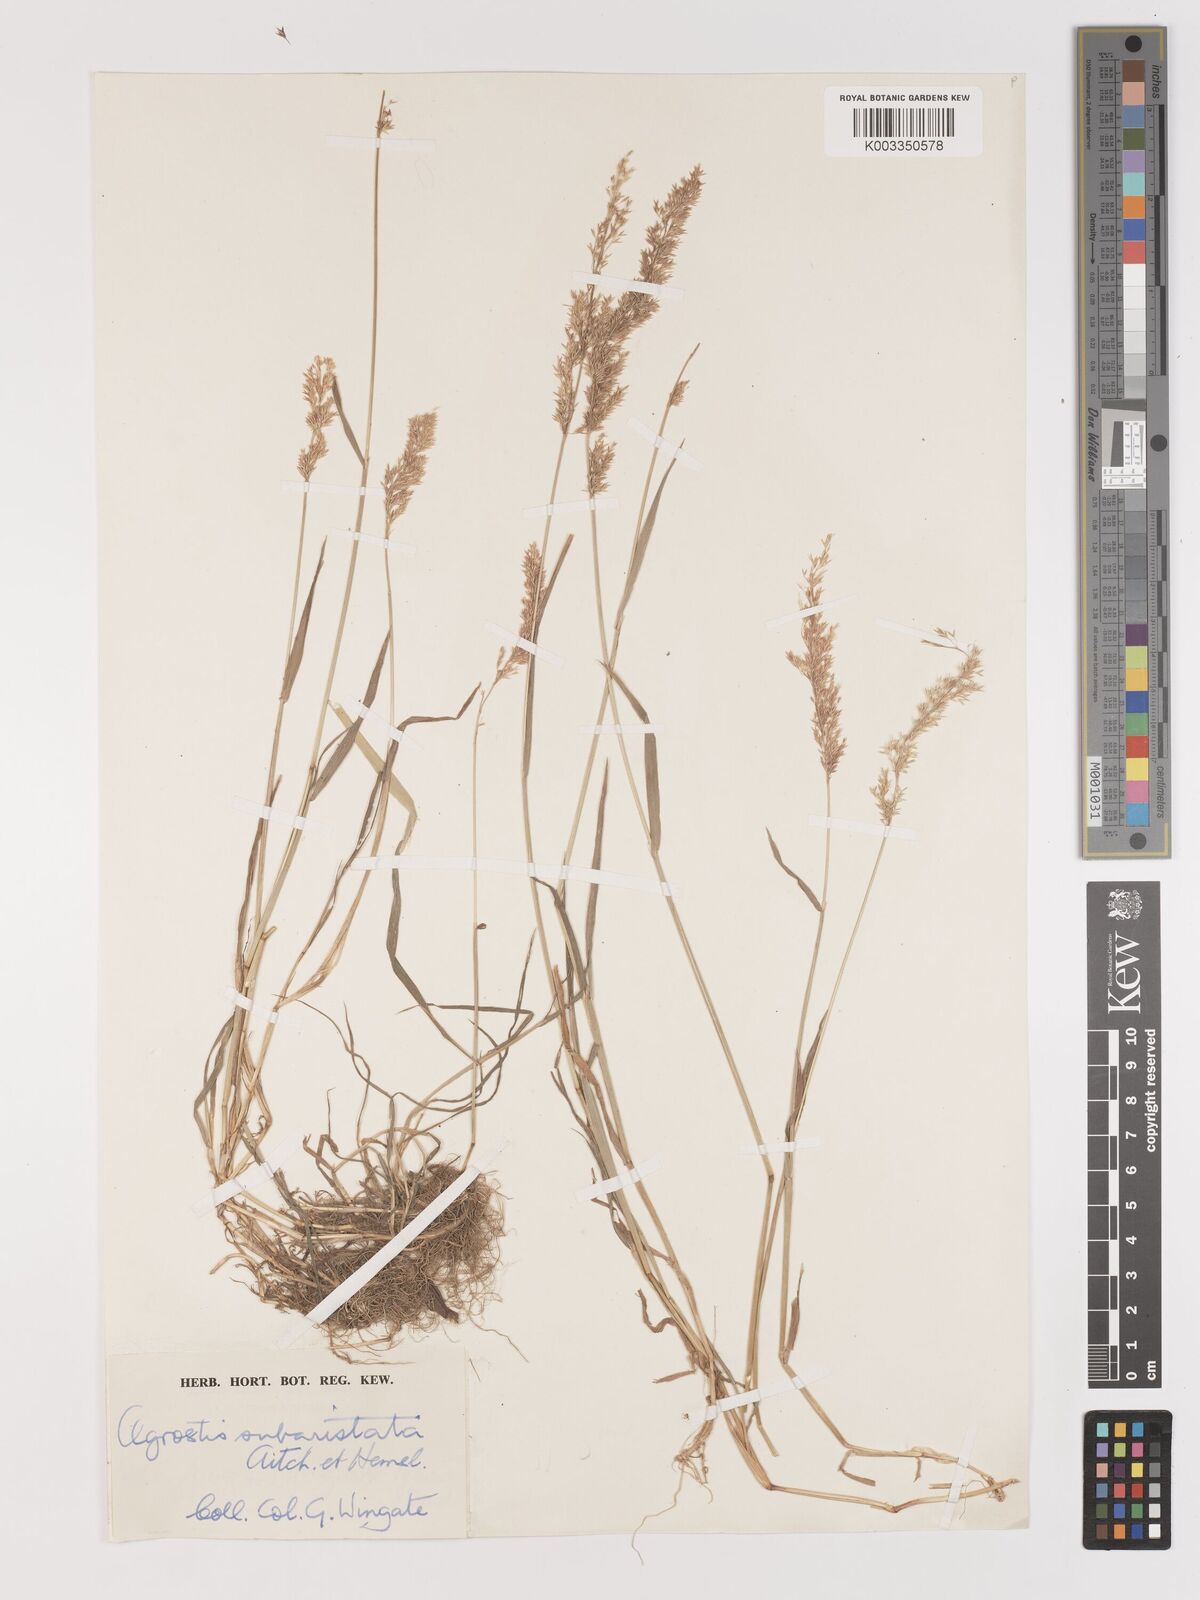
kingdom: Plantae
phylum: Tracheophyta
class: Liliopsida
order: Poales
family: Poaceae
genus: Agropogon
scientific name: Agropogon lutosus
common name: Coast agropogon
